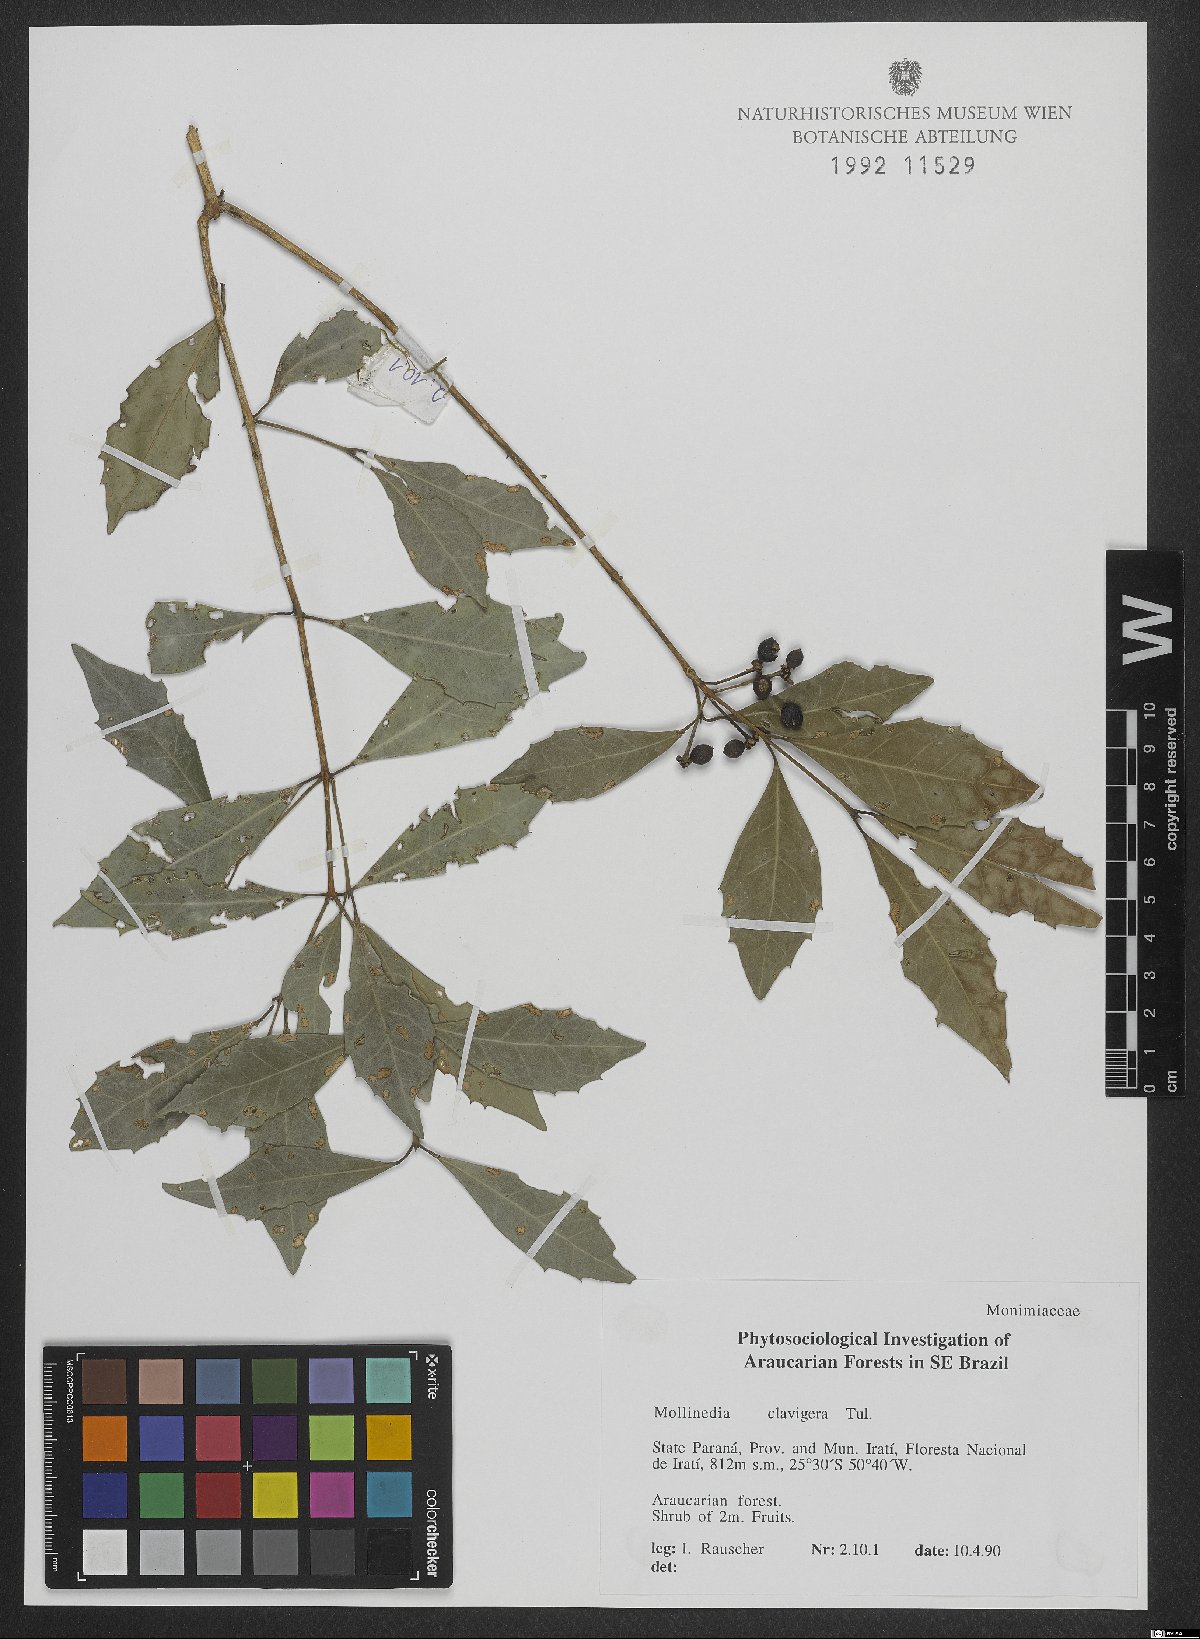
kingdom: Plantae
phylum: Tracheophyta
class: Magnoliopsida
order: Laurales
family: Monimiaceae
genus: Mollinedia
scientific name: Mollinedia clavigera
